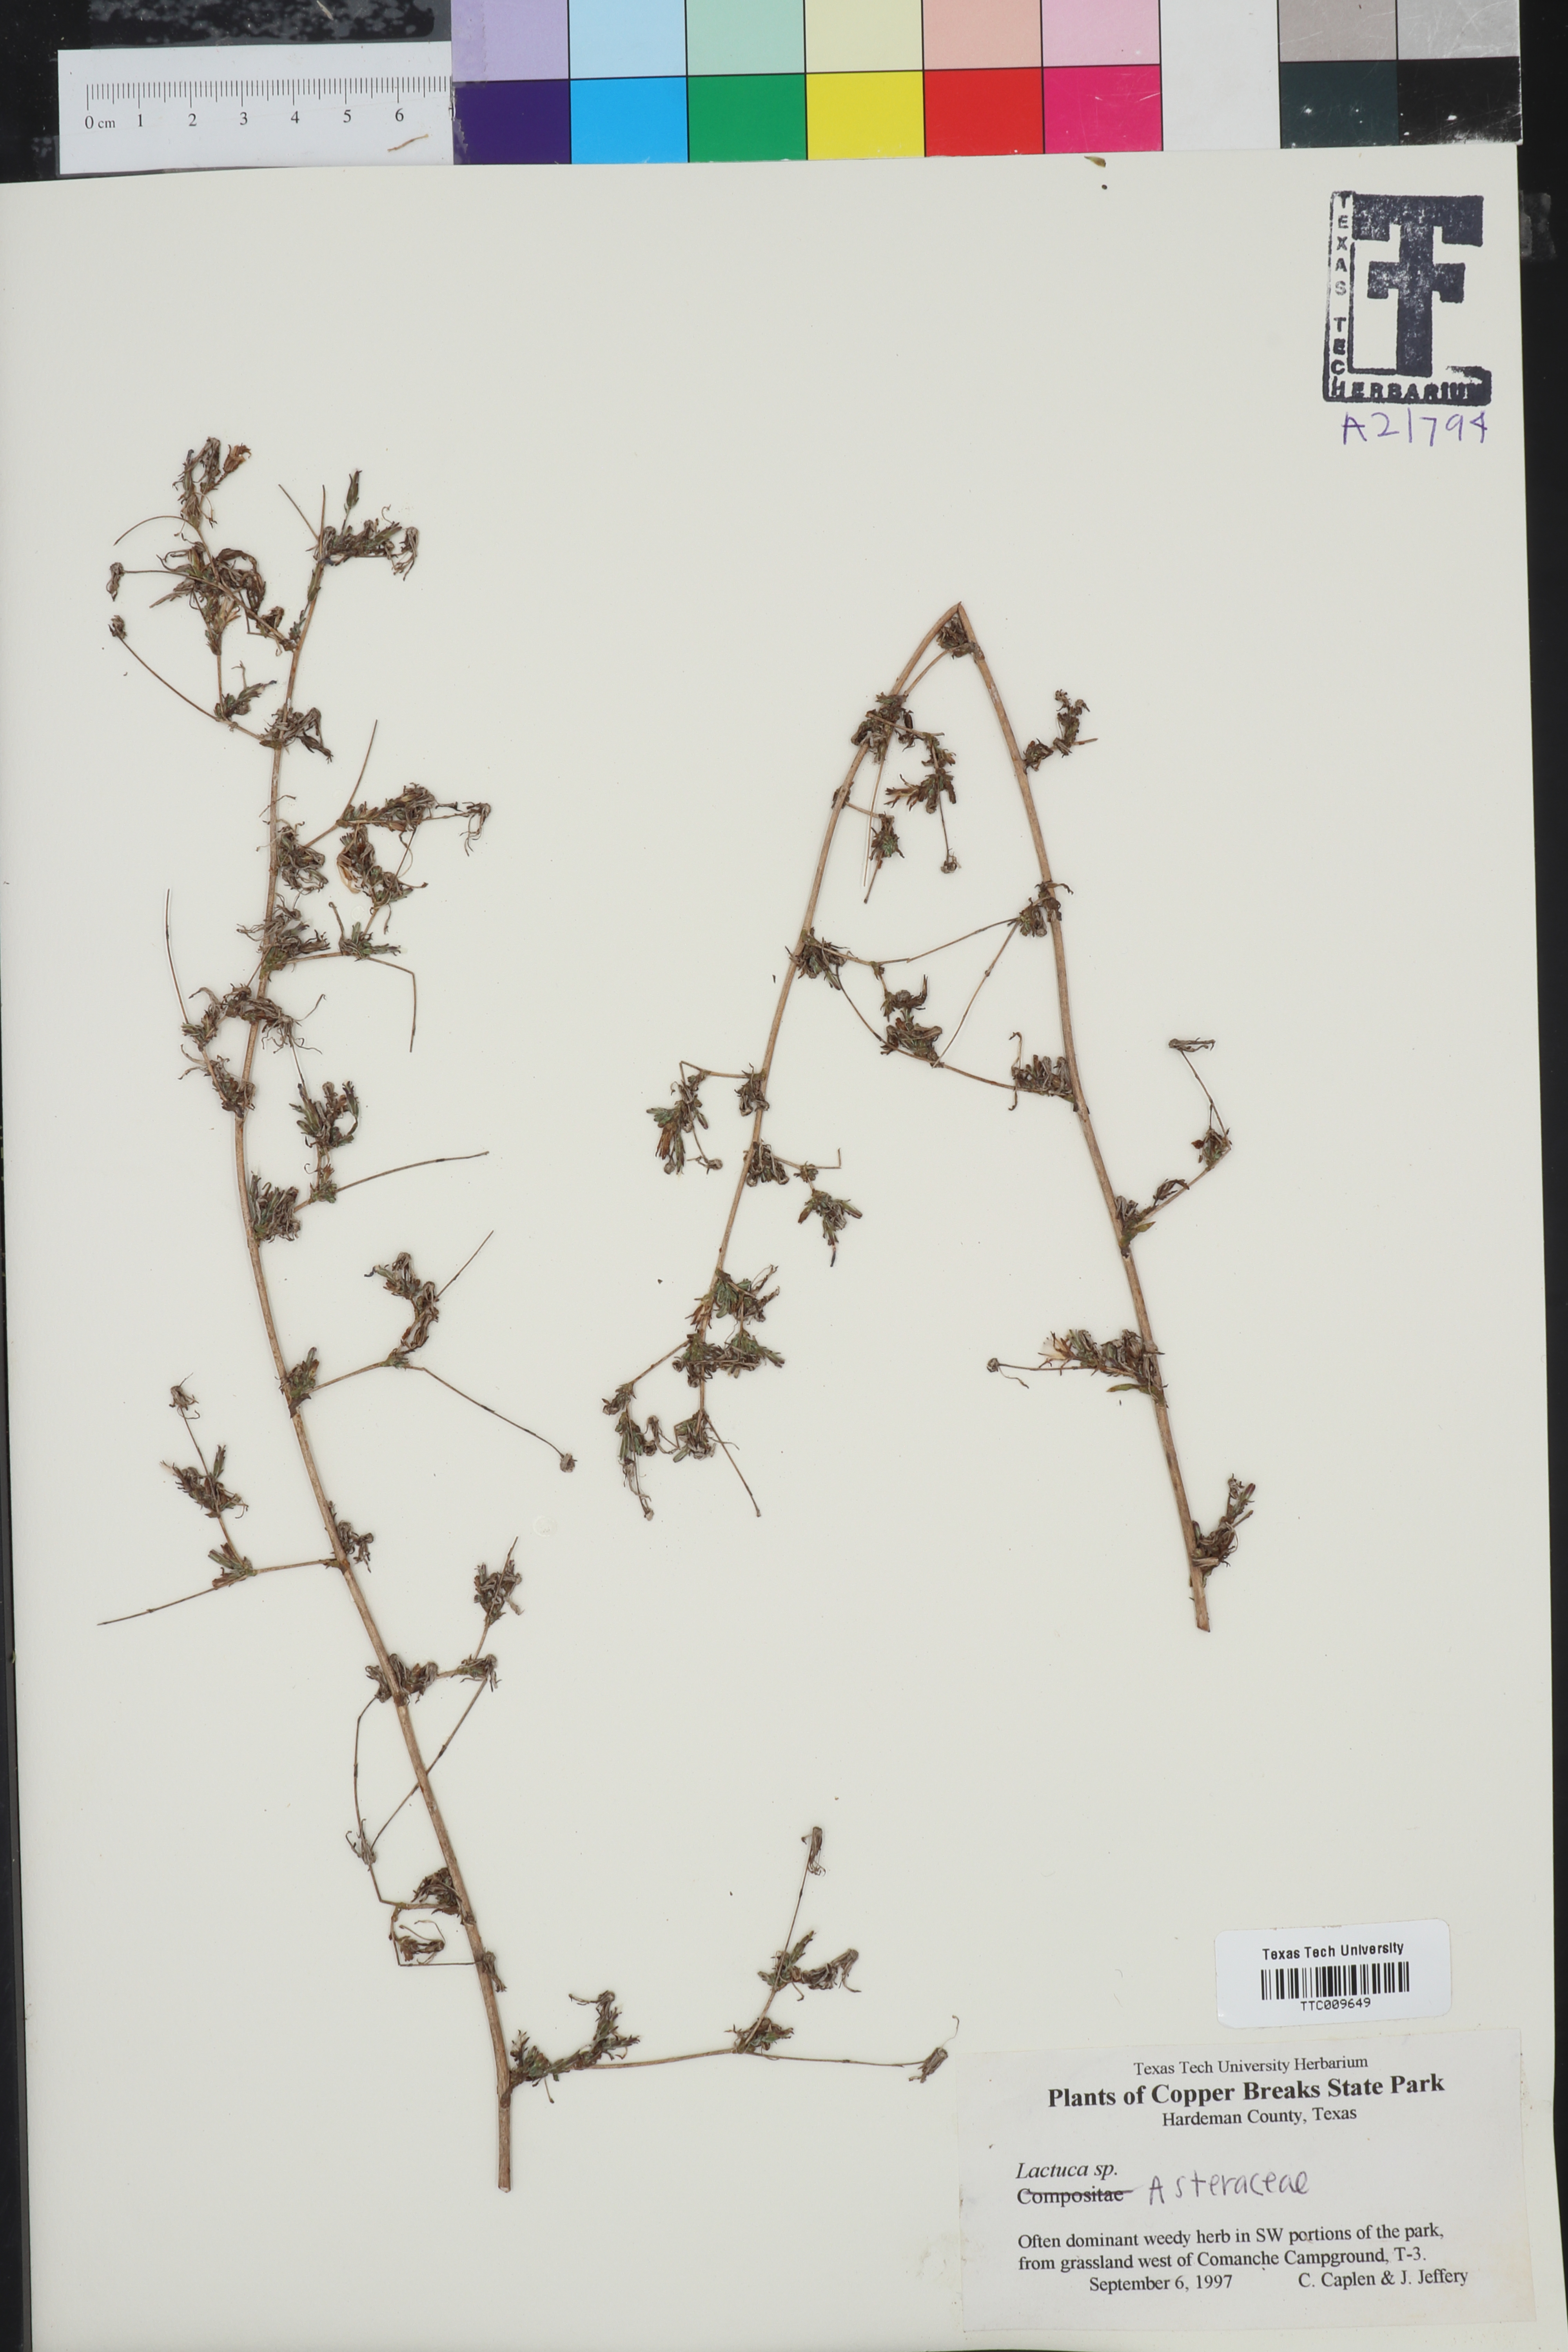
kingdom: Plantae
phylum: Tracheophyta
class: Magnoliopsida
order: Asterales
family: Asteraceae
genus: Lactuca
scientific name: Lactuca
